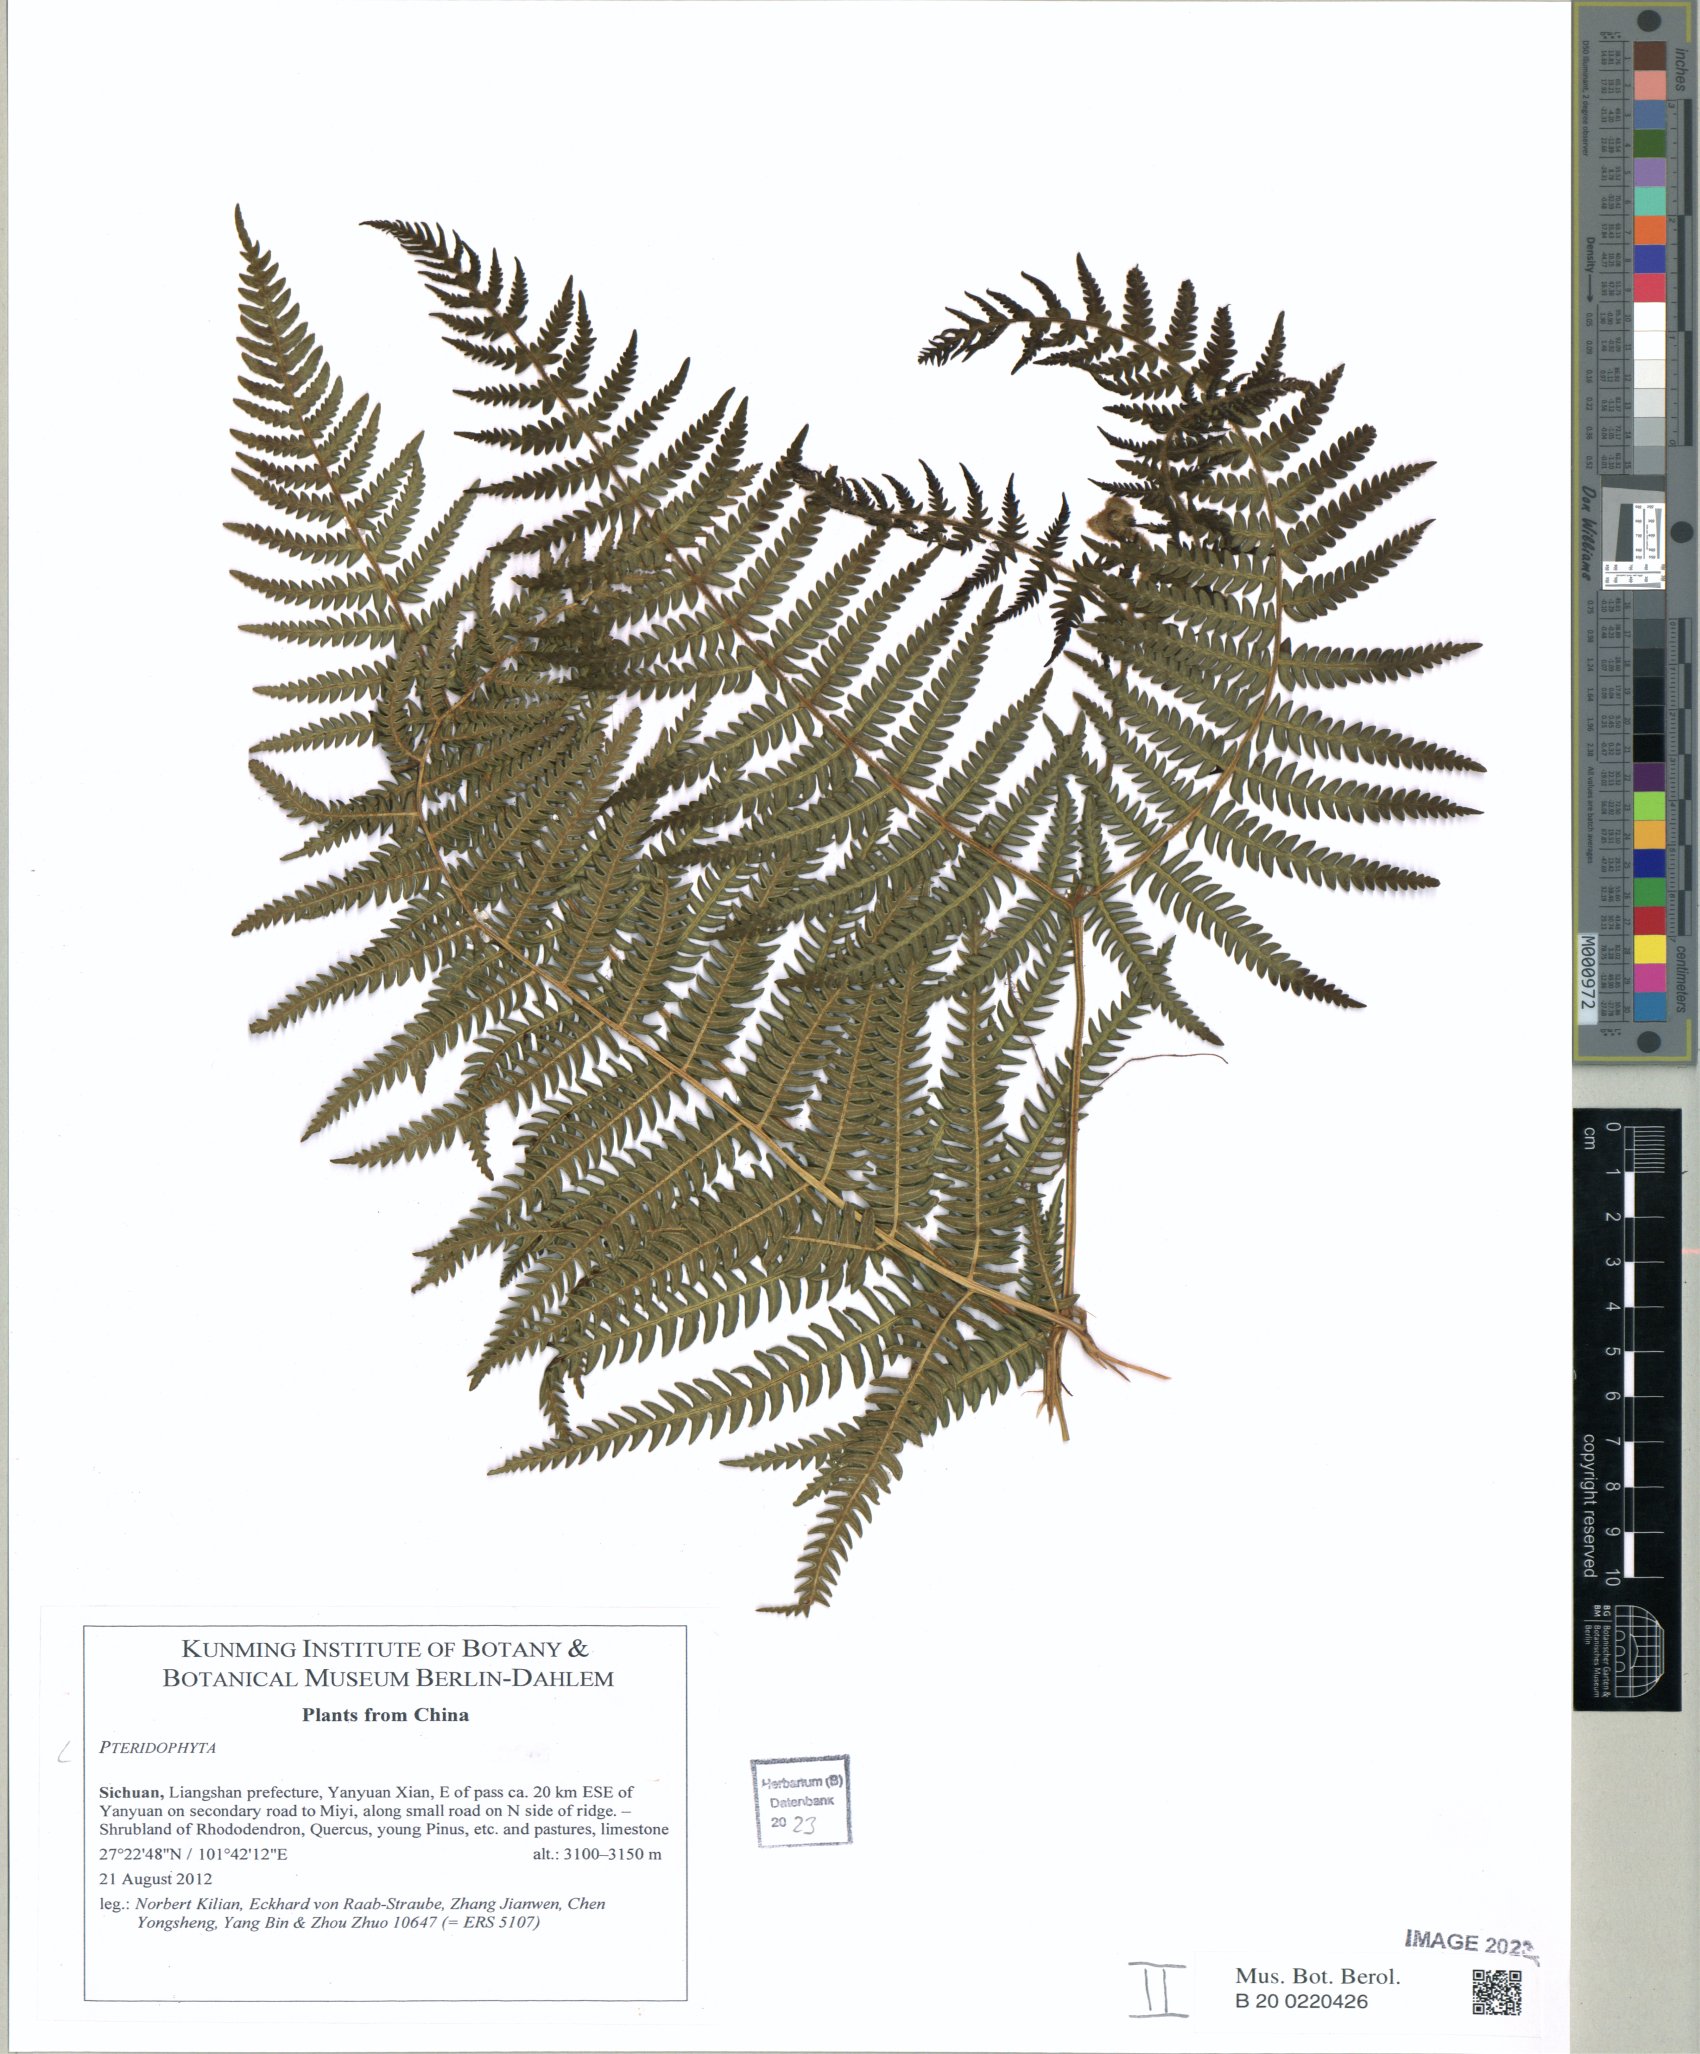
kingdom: Plantae
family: Pteridophyta
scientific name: Pteridophyta
